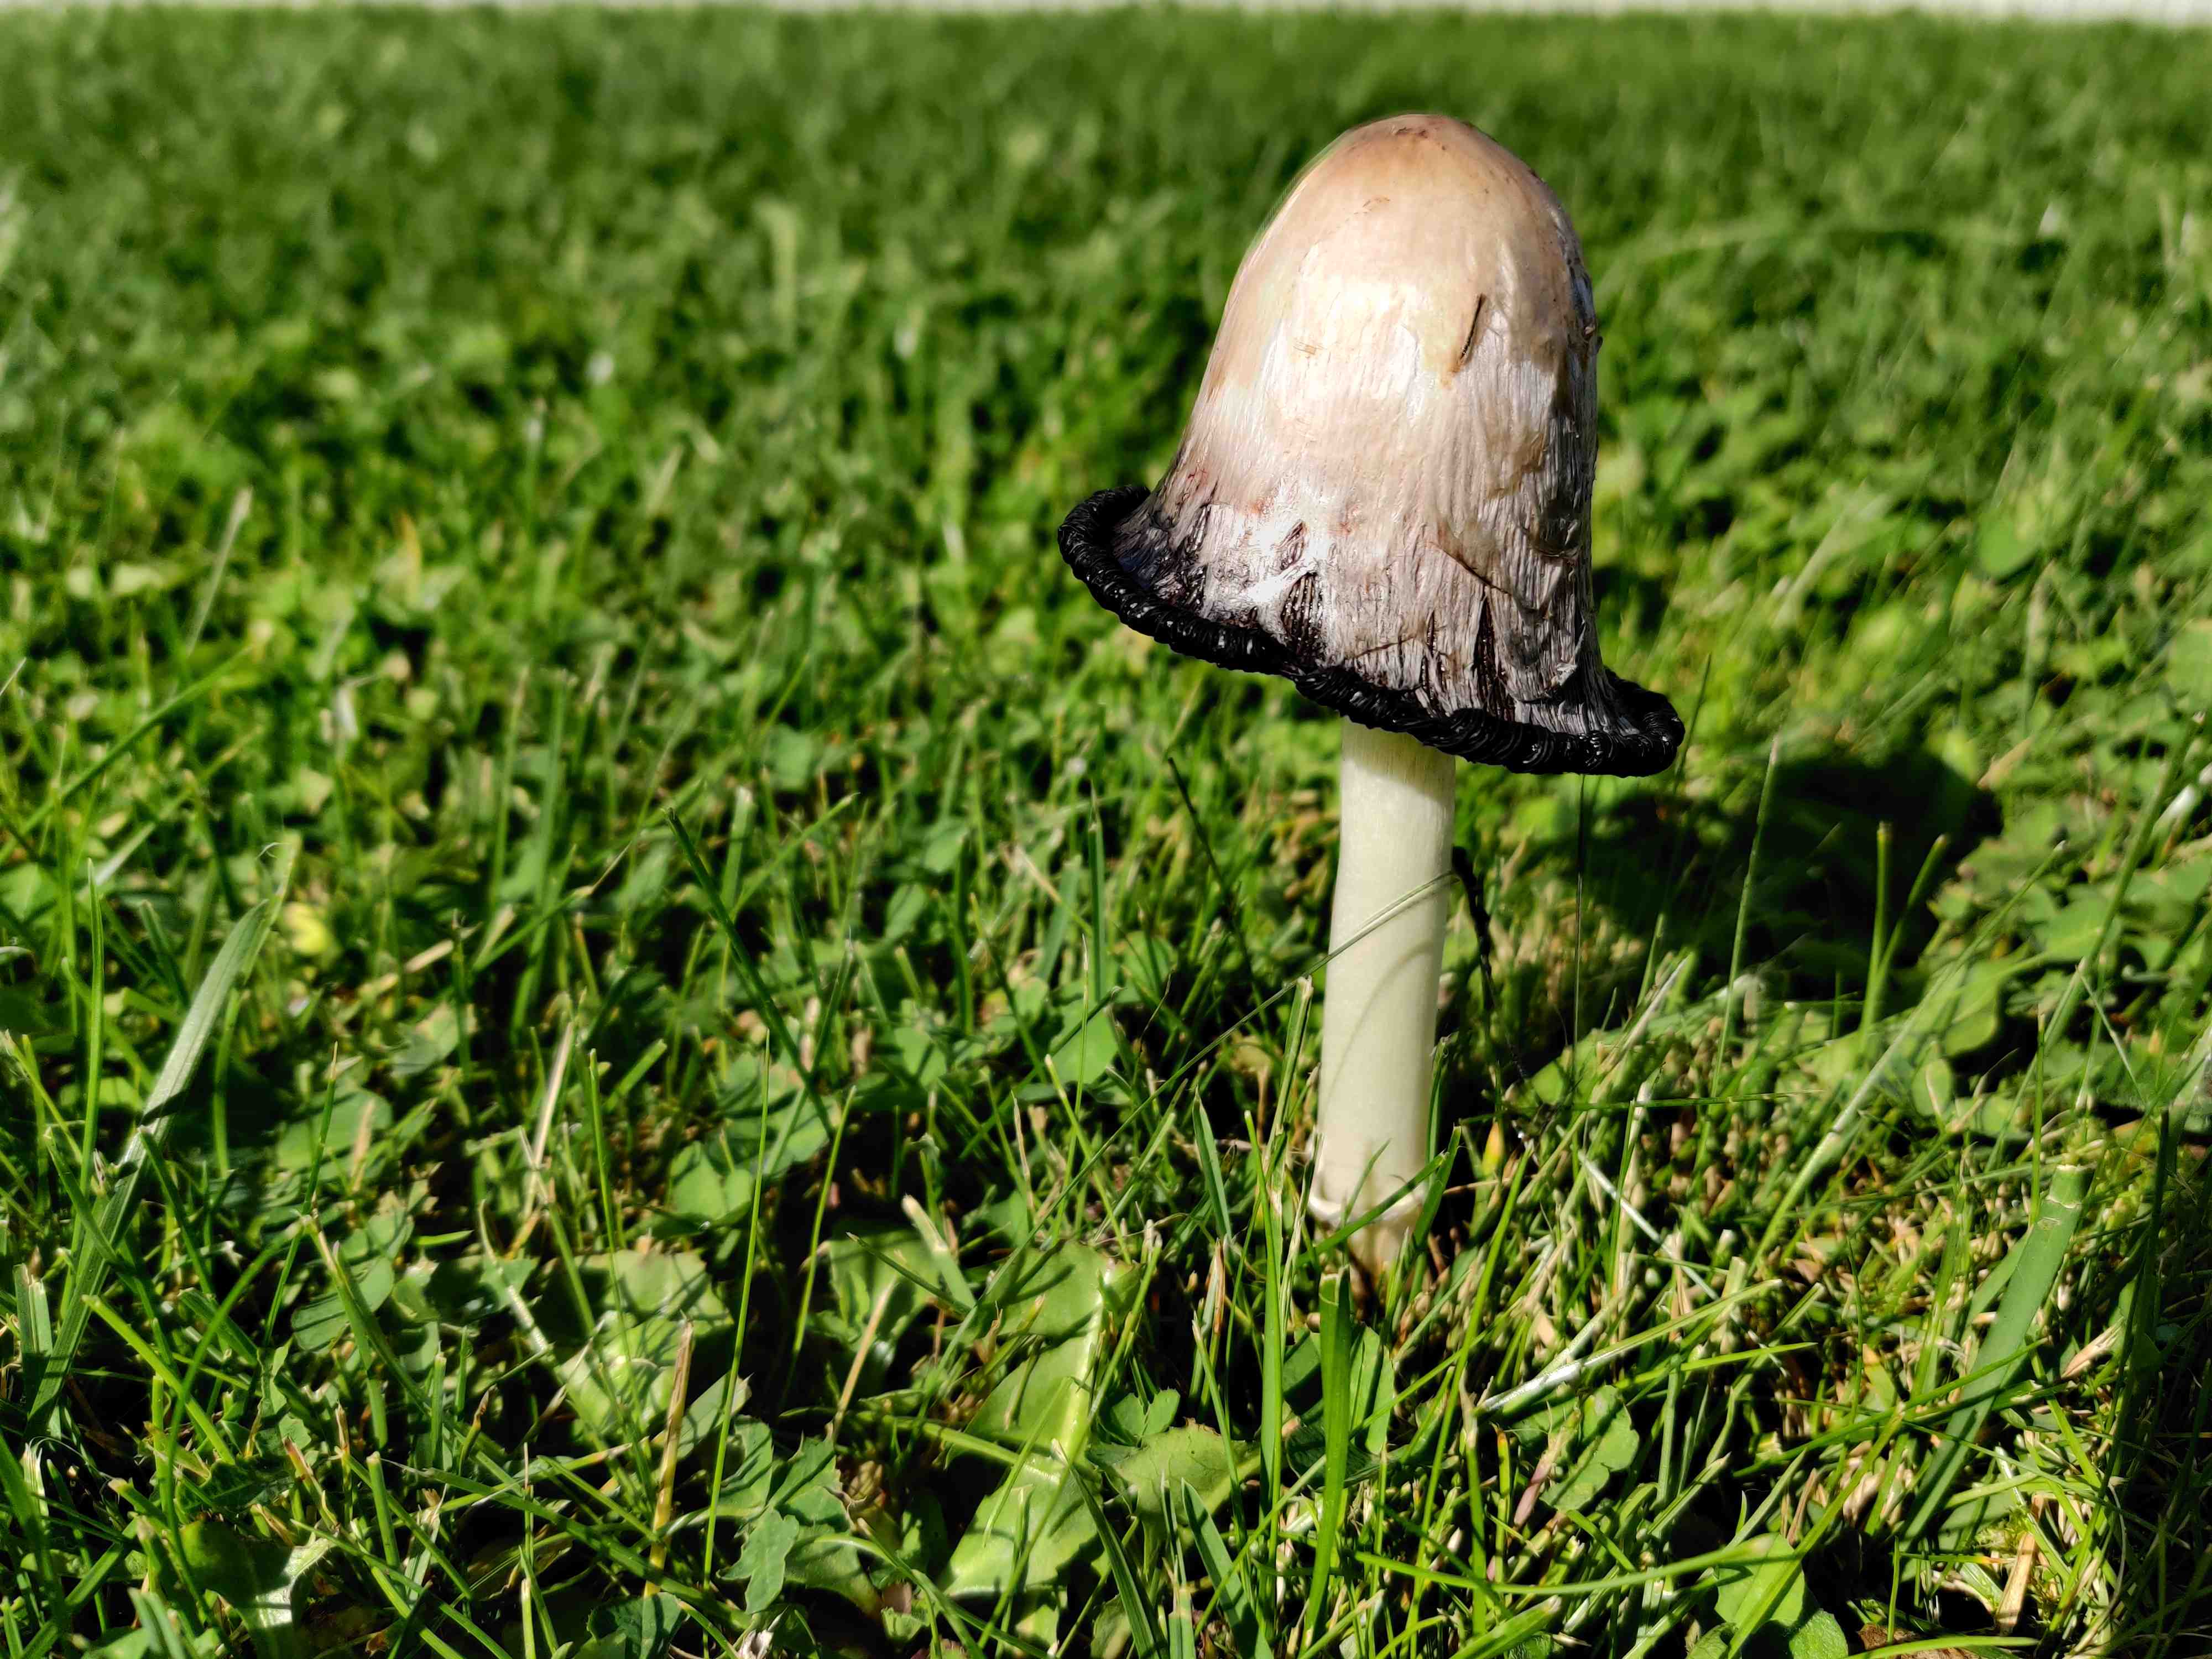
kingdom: Fungi
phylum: Basidiomycota
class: Agaricomycetes
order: Agaricales
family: Agaricaceae
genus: Coprinus
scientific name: Coprinus comatus
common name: stor parykhat
